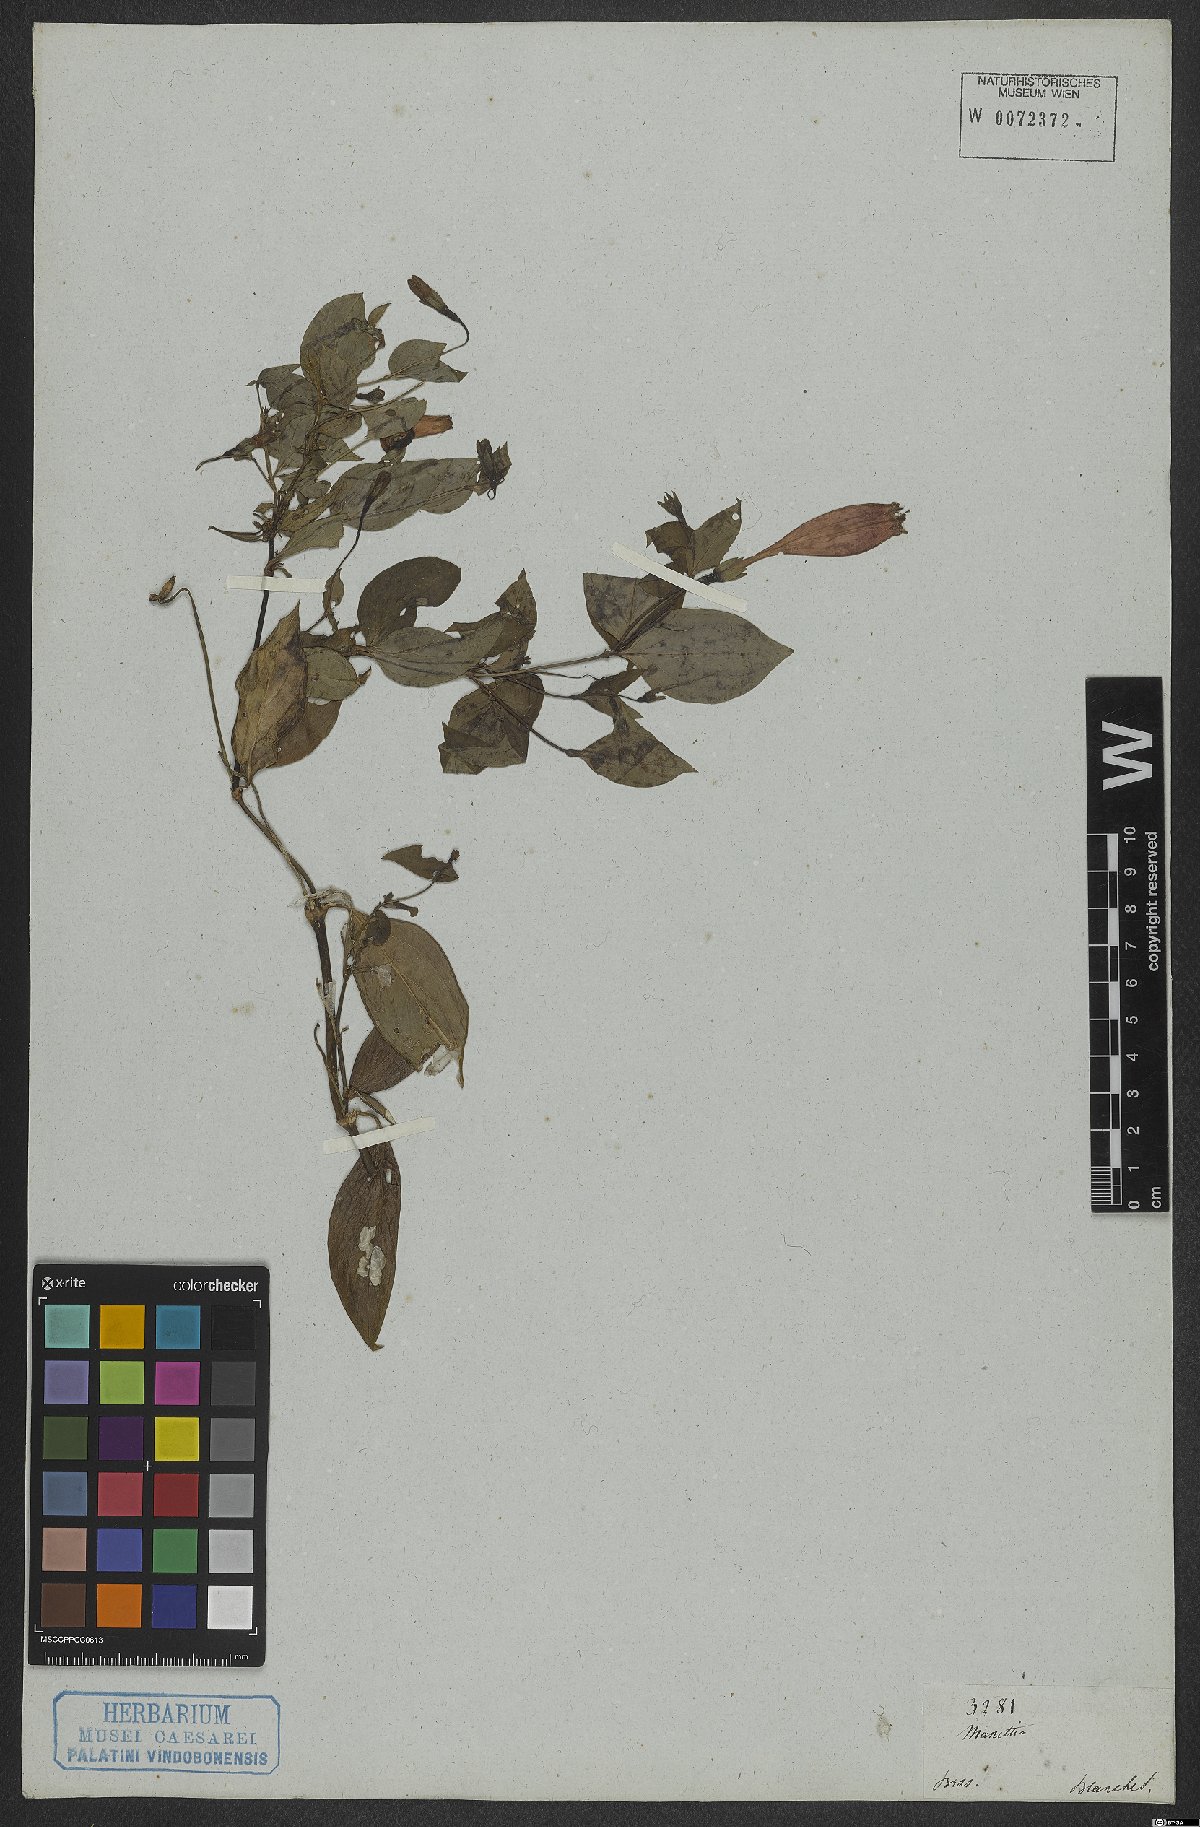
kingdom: Plantae
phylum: Tracheophyta
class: Magnoliopsida
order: Gentianales
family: Rubiaceae
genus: Manettia
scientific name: Manettia
